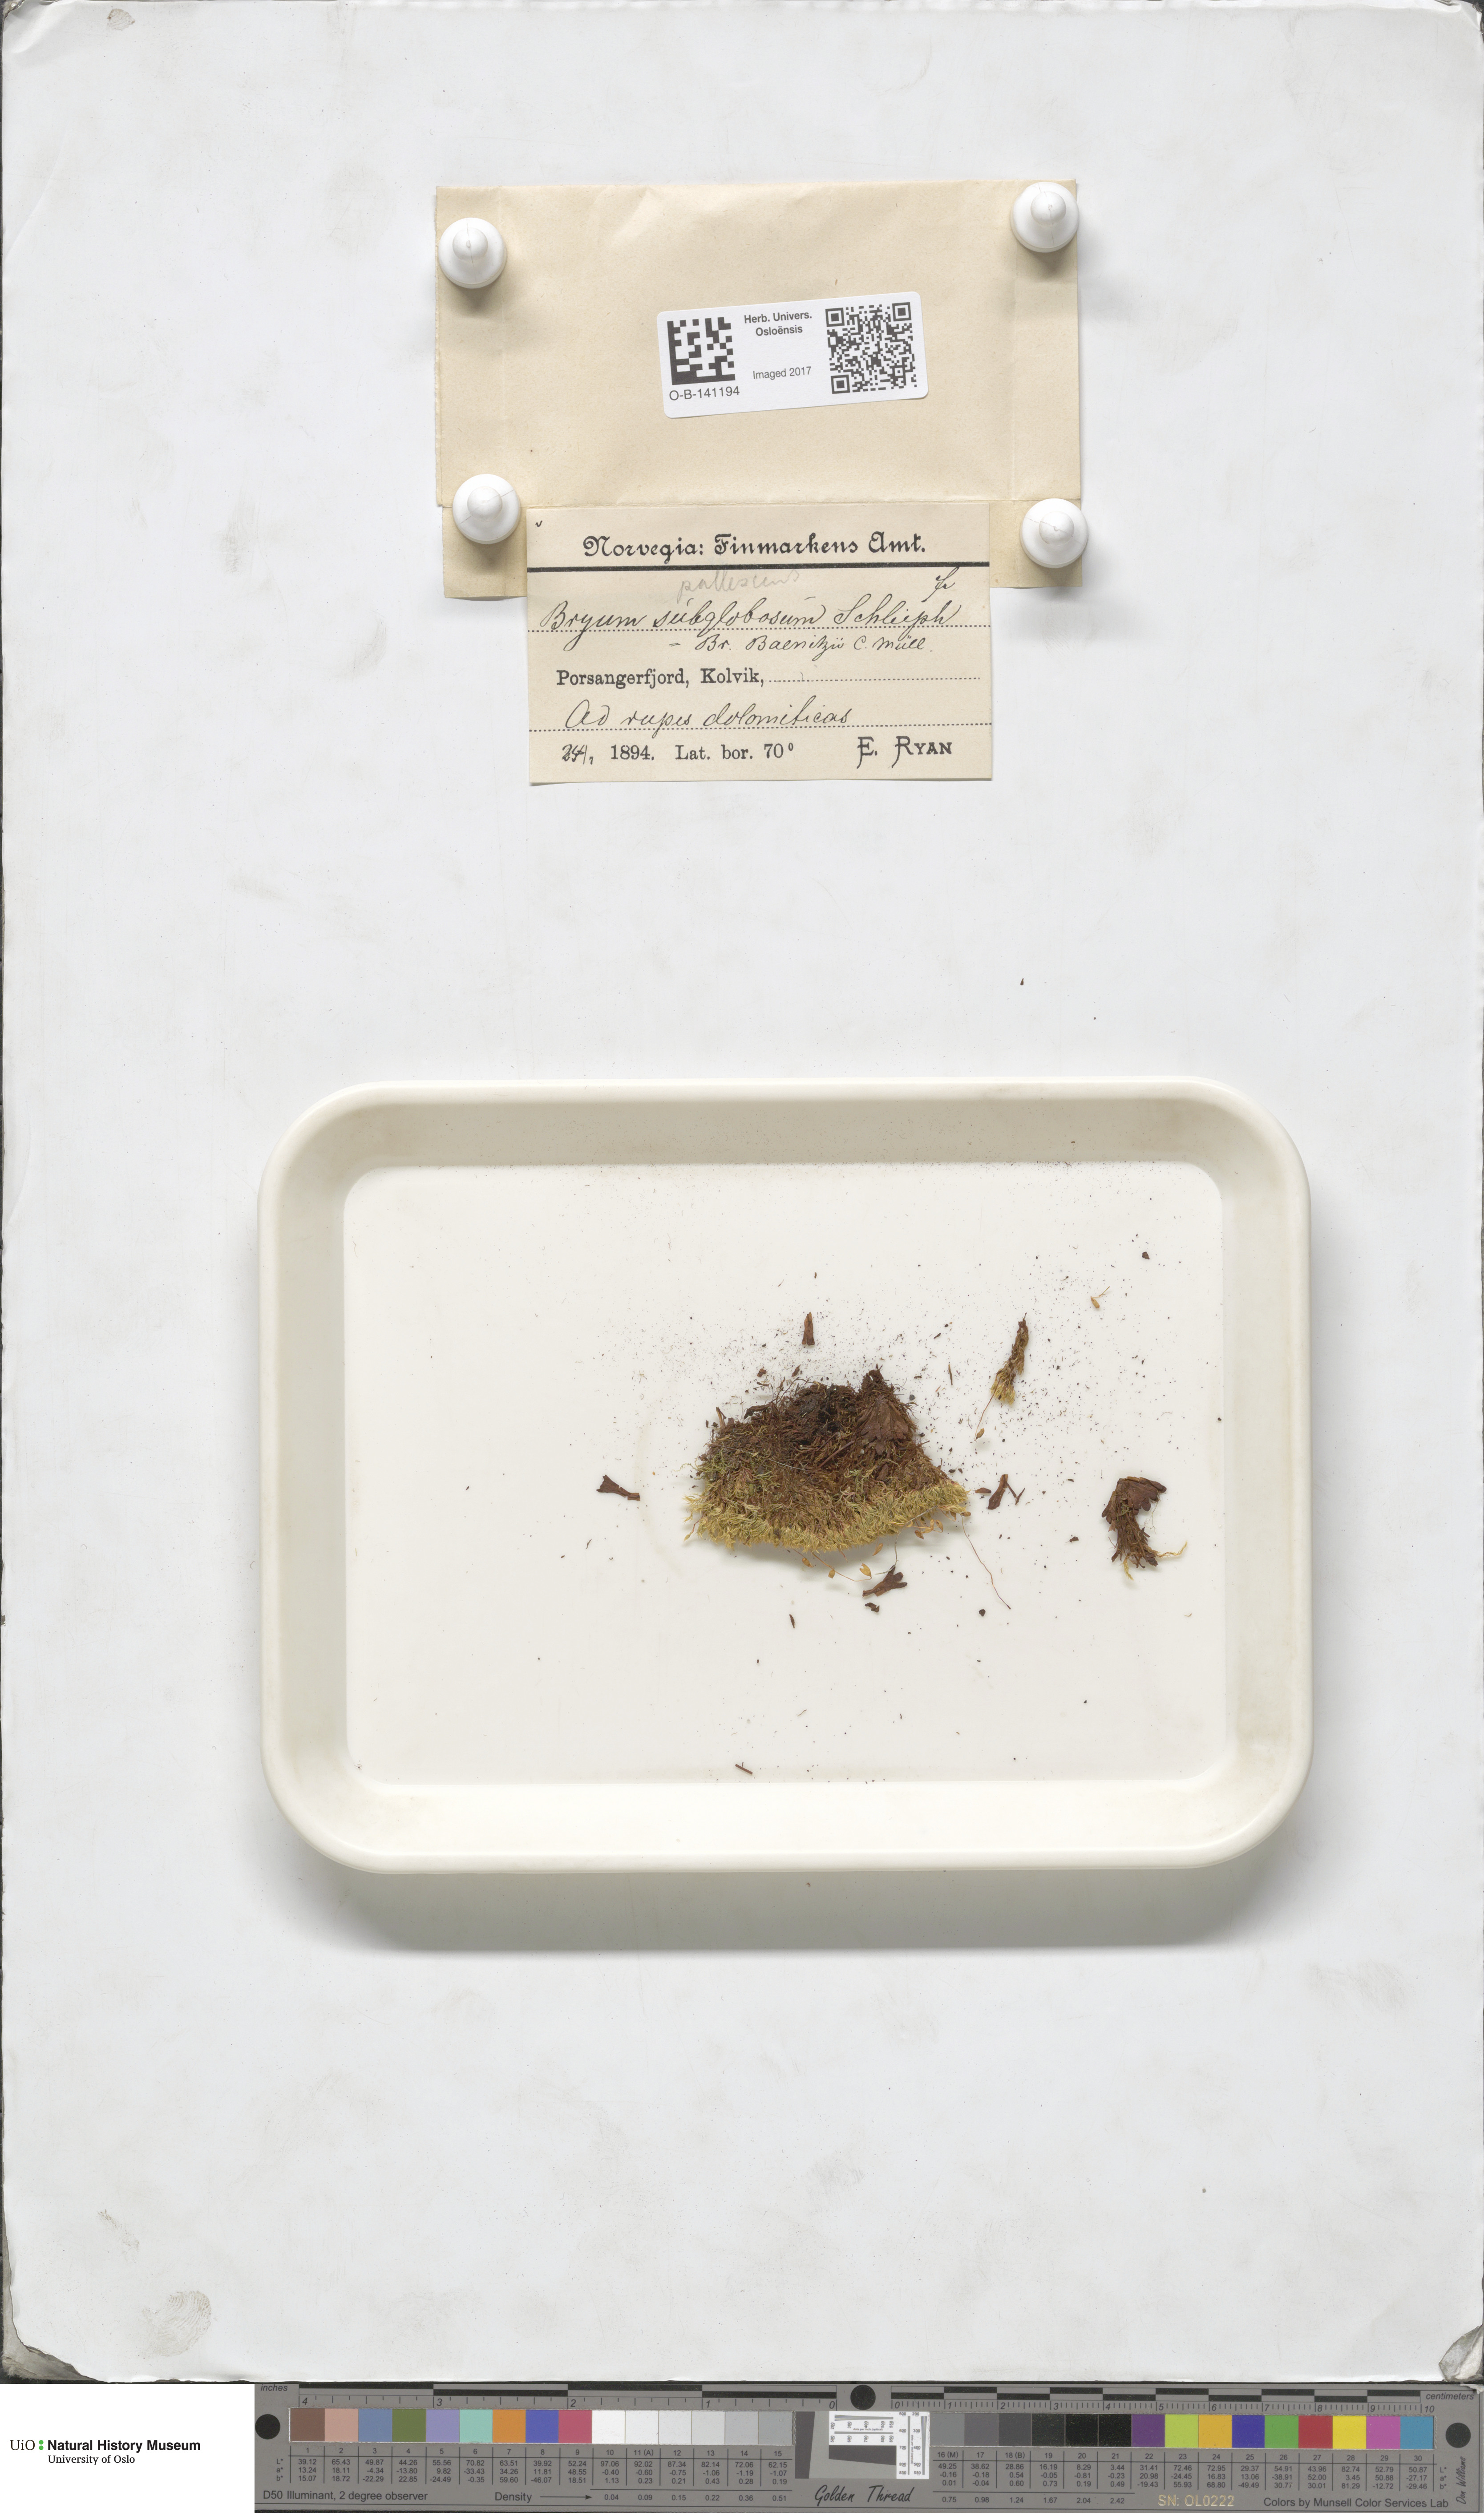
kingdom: Plantae
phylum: Bryophyta
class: Bryopsida
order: Bryales
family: Bryaceae
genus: Ptychostomum
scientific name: Ptychostomum pallens
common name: Pale thread-moss
